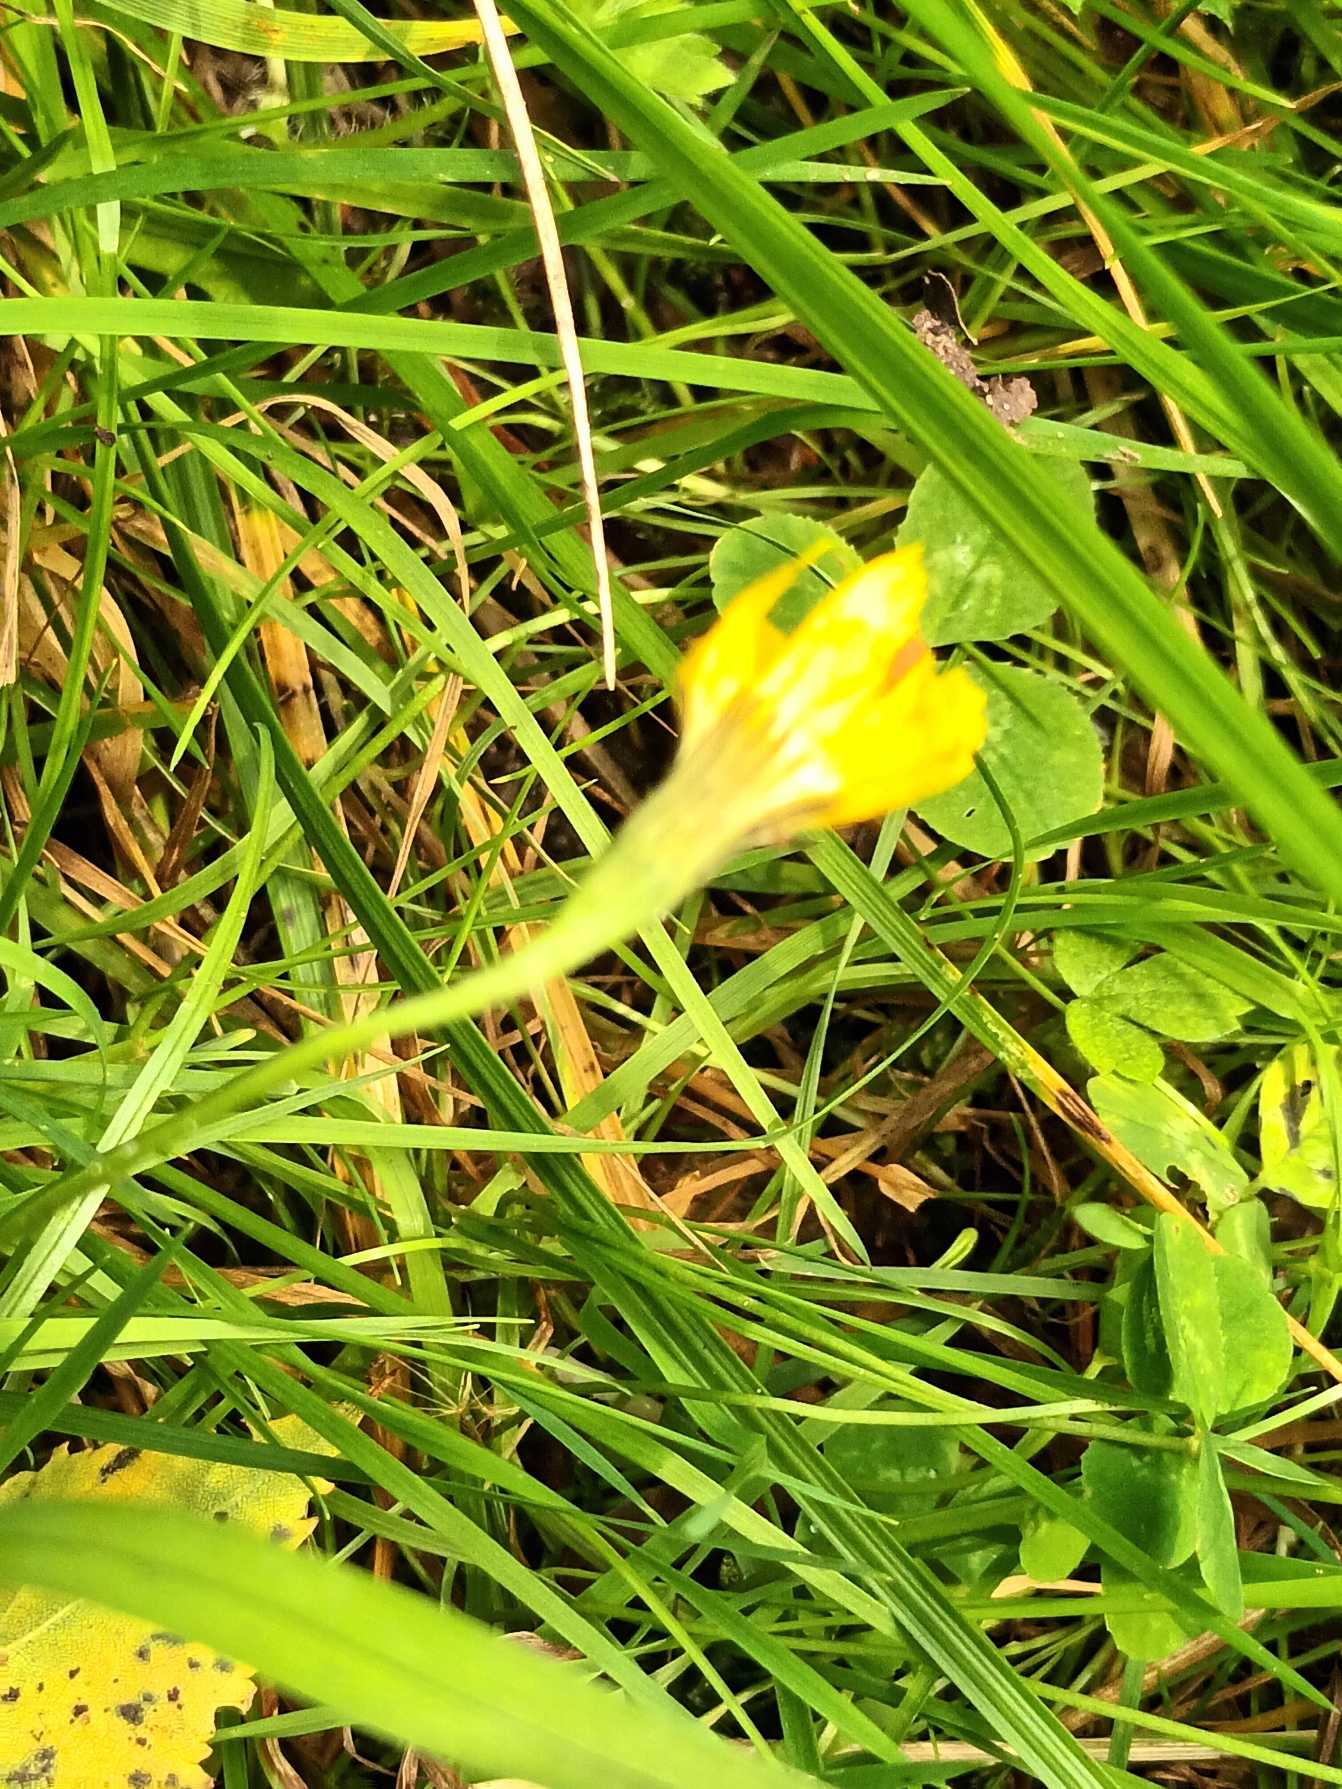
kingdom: Plantae
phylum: Tracheophyta
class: Magnoliopsida
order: Asterales
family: Asteraceae
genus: Scorzoneroides
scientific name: Scorzoneroides autumnalis
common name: Høst-borst
